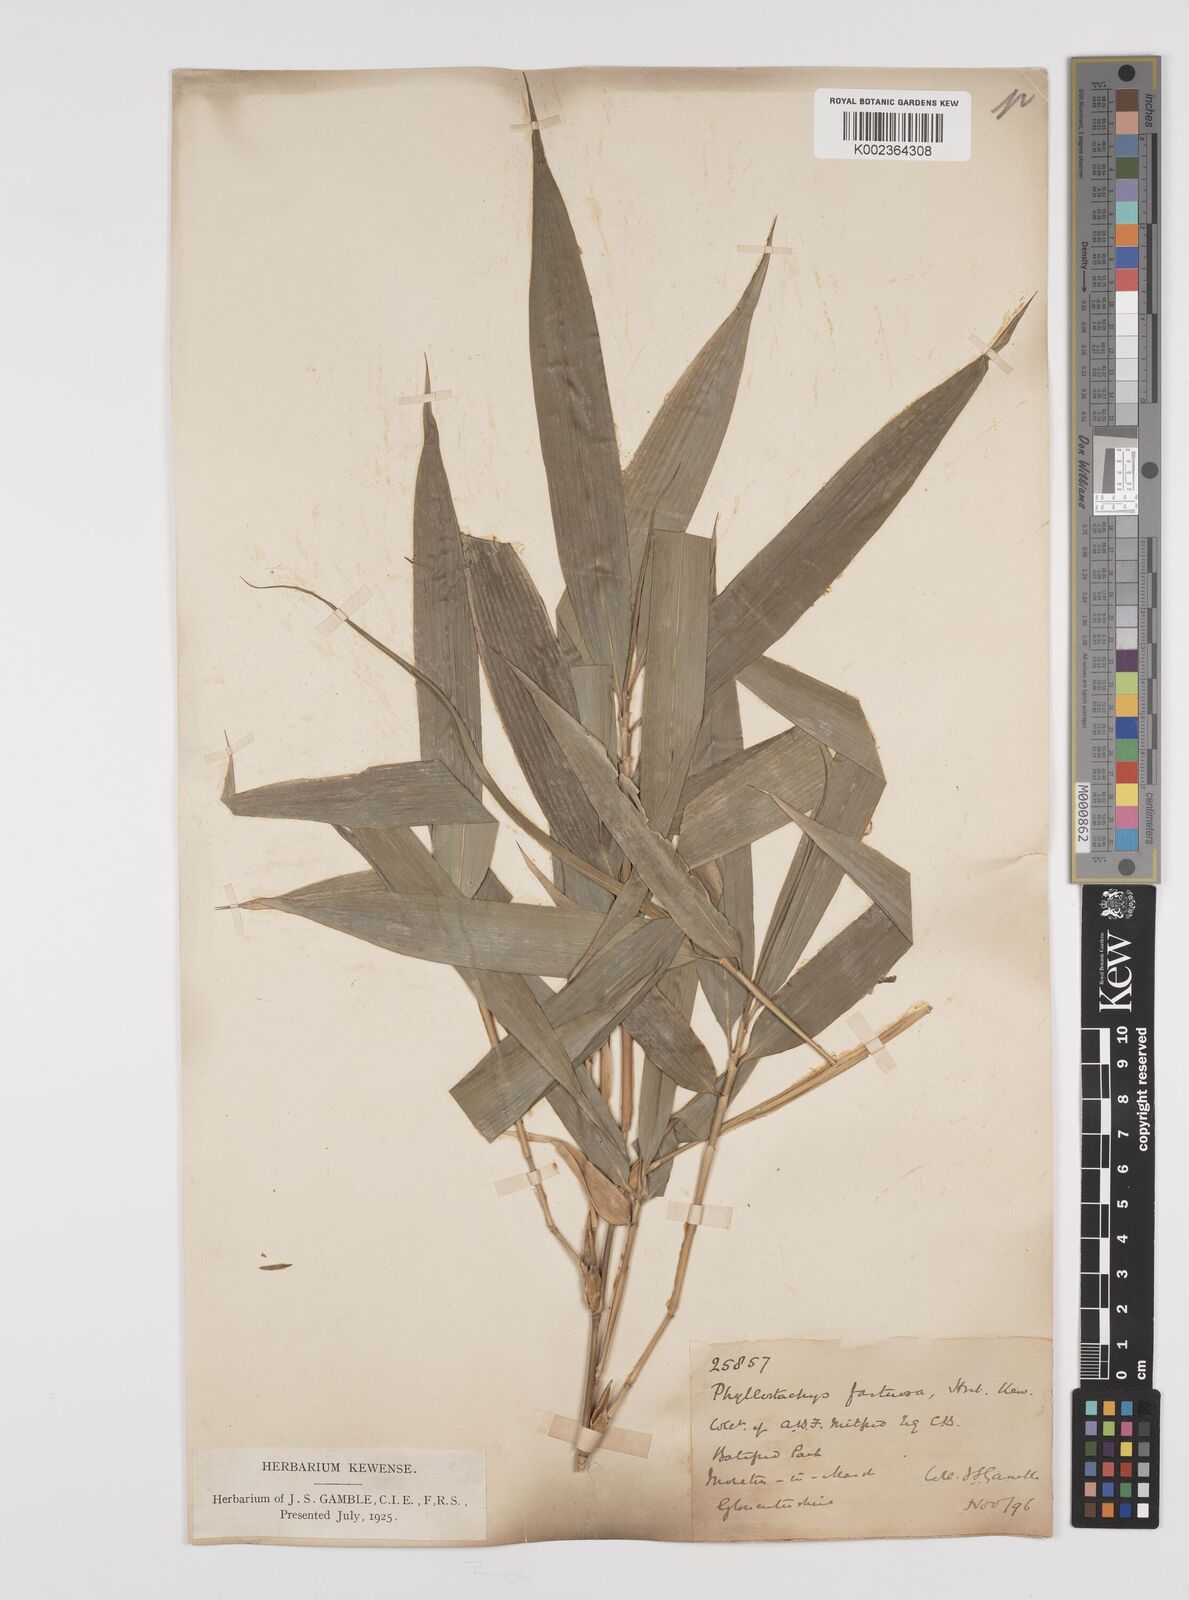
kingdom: Plantae
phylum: Tracheophyta
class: Liliopsida
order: Poales
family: Poaceae
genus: Phyllostachys
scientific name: Phyllostachys
